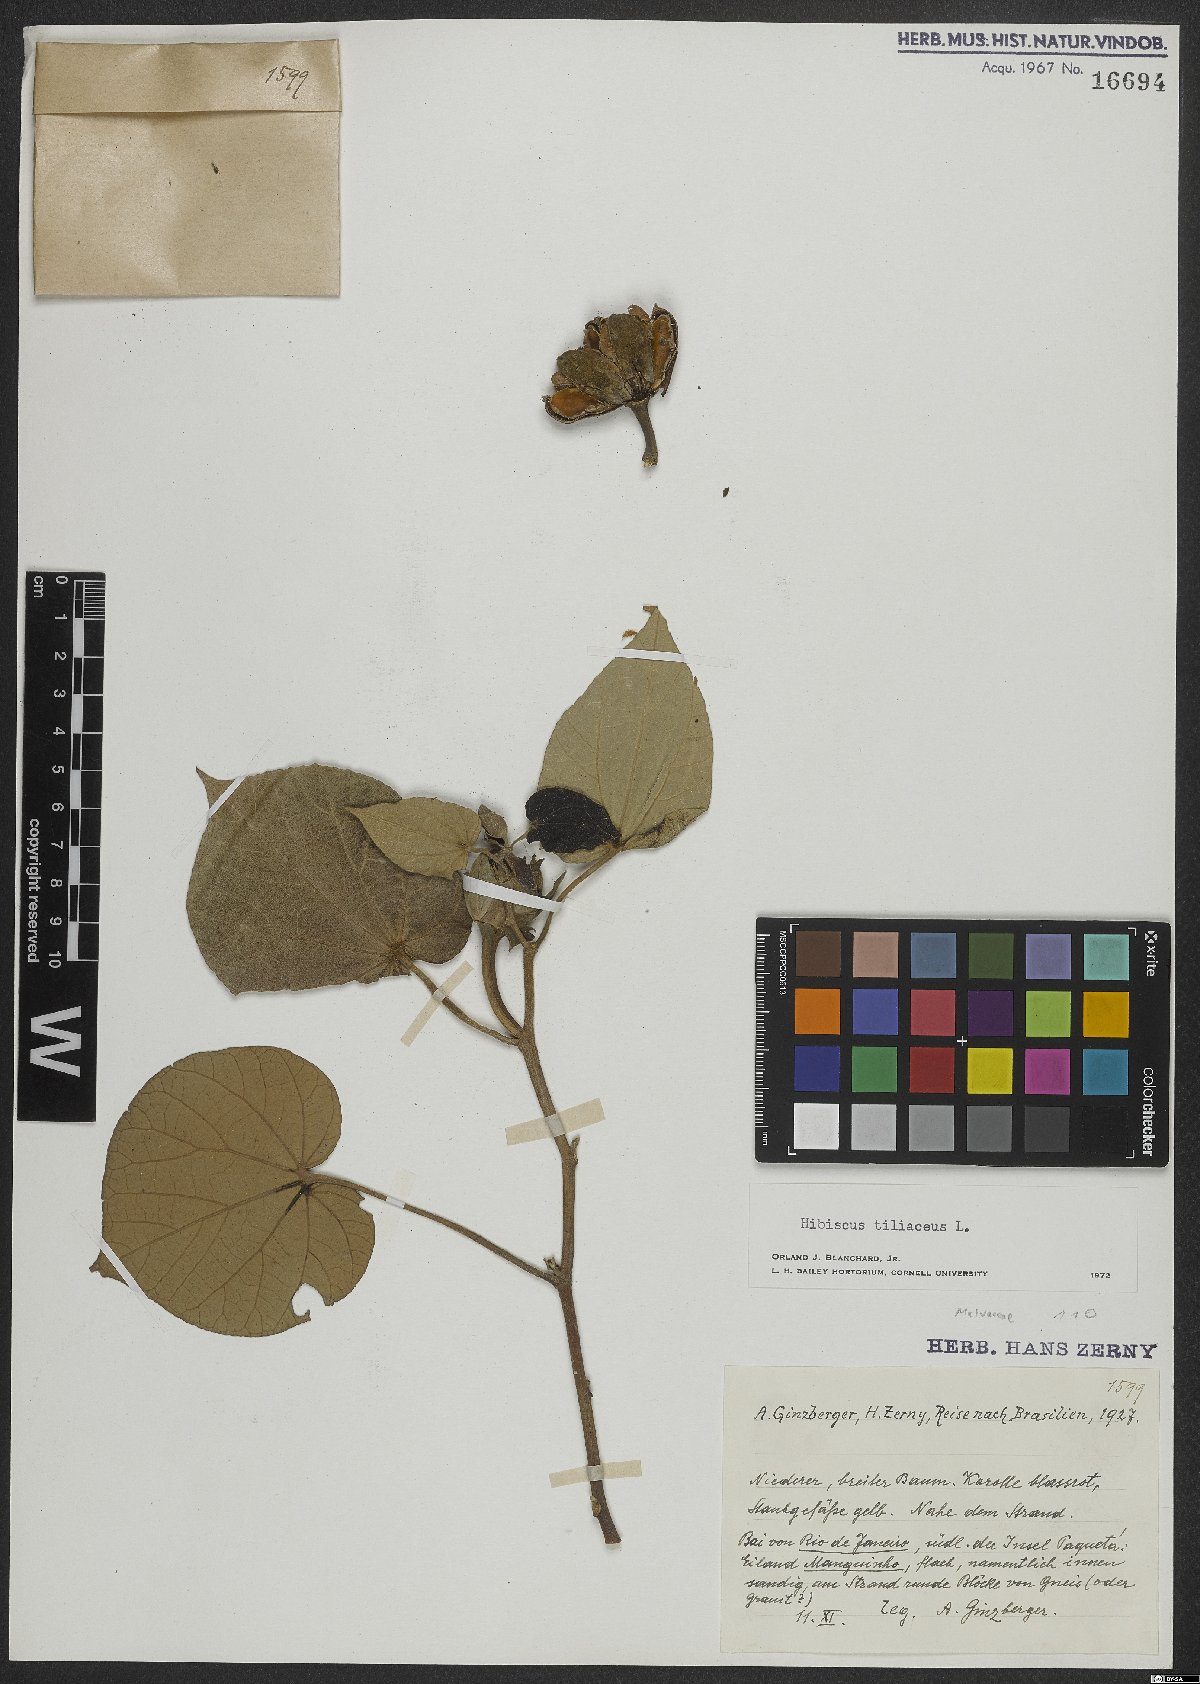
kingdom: Plantae
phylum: Tracheophyta
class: Magnoliopsida
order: Malvales
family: Malvaceae
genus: Talipariti
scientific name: Talipariti tiliaceum
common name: Sea hibiscus
